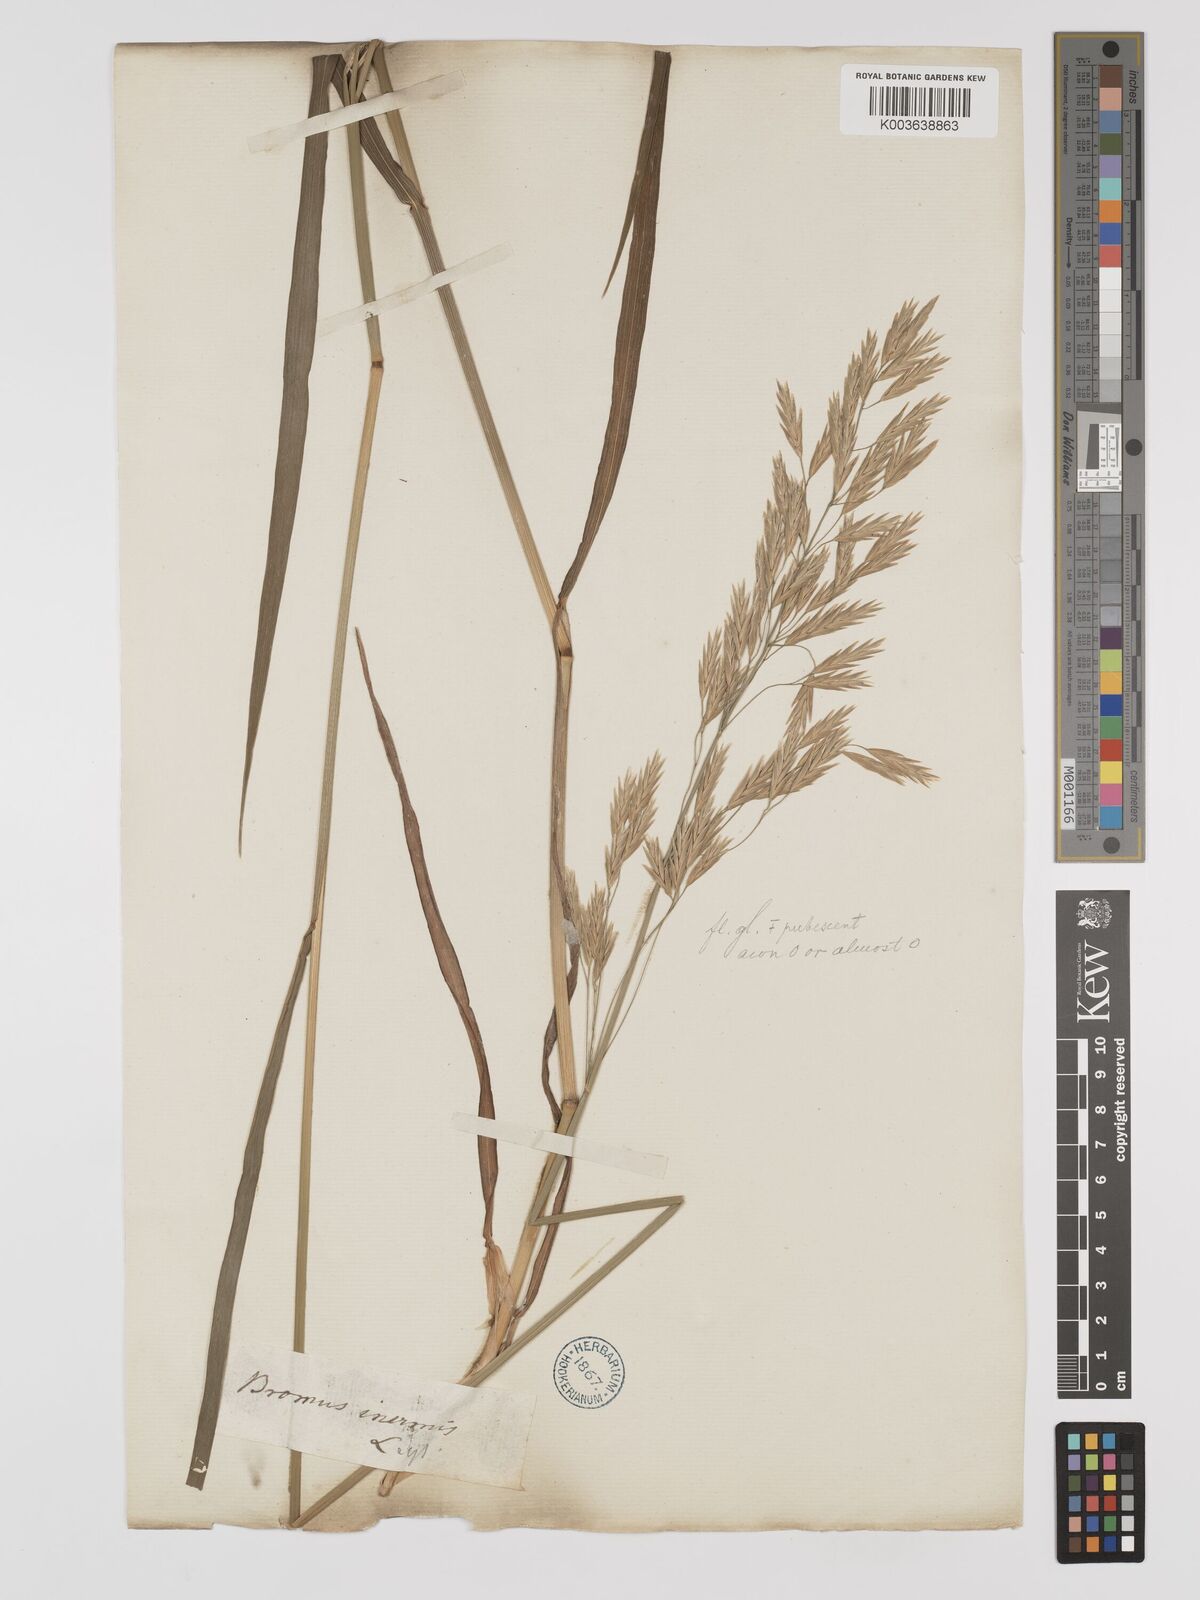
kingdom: Plantae
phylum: Tracheophyta
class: Liliopsida
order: Poales
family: Poaceae
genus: Bromus
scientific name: Bromus inermis
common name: Smooth brome
